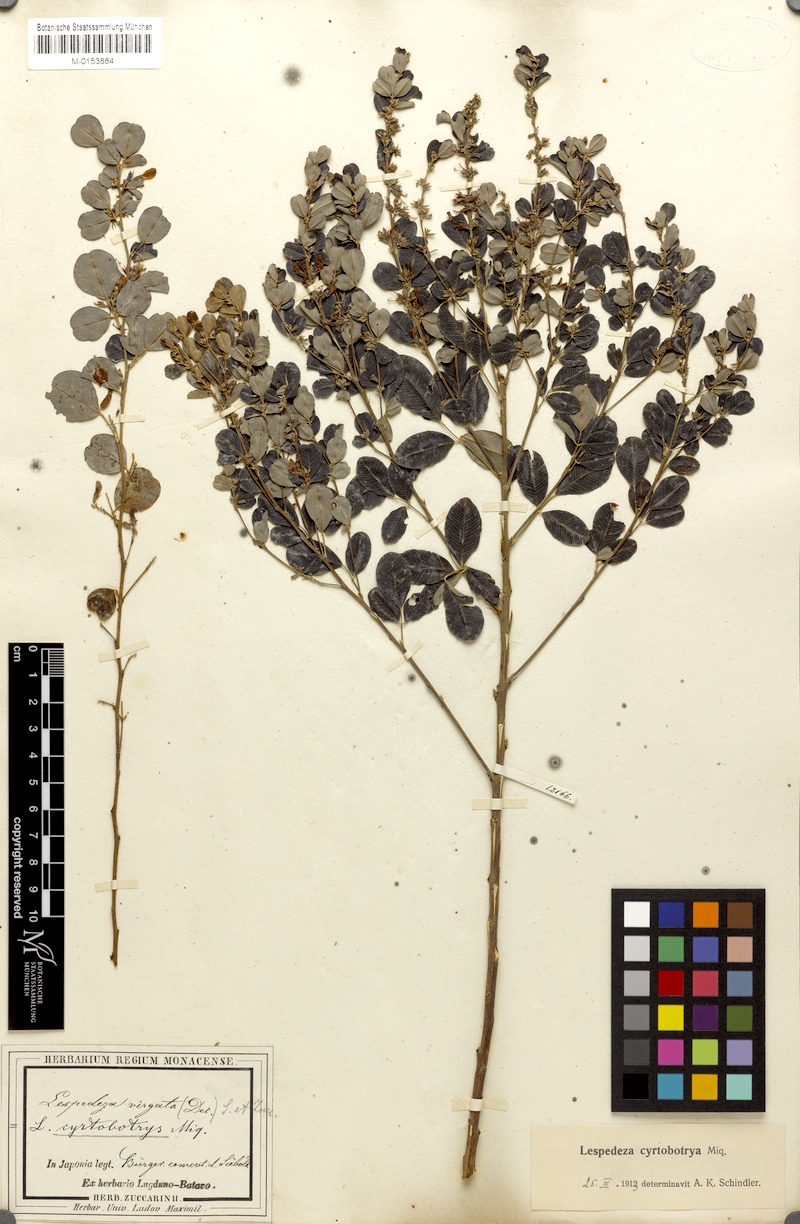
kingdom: Plantae
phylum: Tracheophyta
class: Magnoliopsida
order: Fabales
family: Fabaceae
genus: Lespedeza
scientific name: Lespedeza cyrtobotrya
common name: Leafy lespedeza
